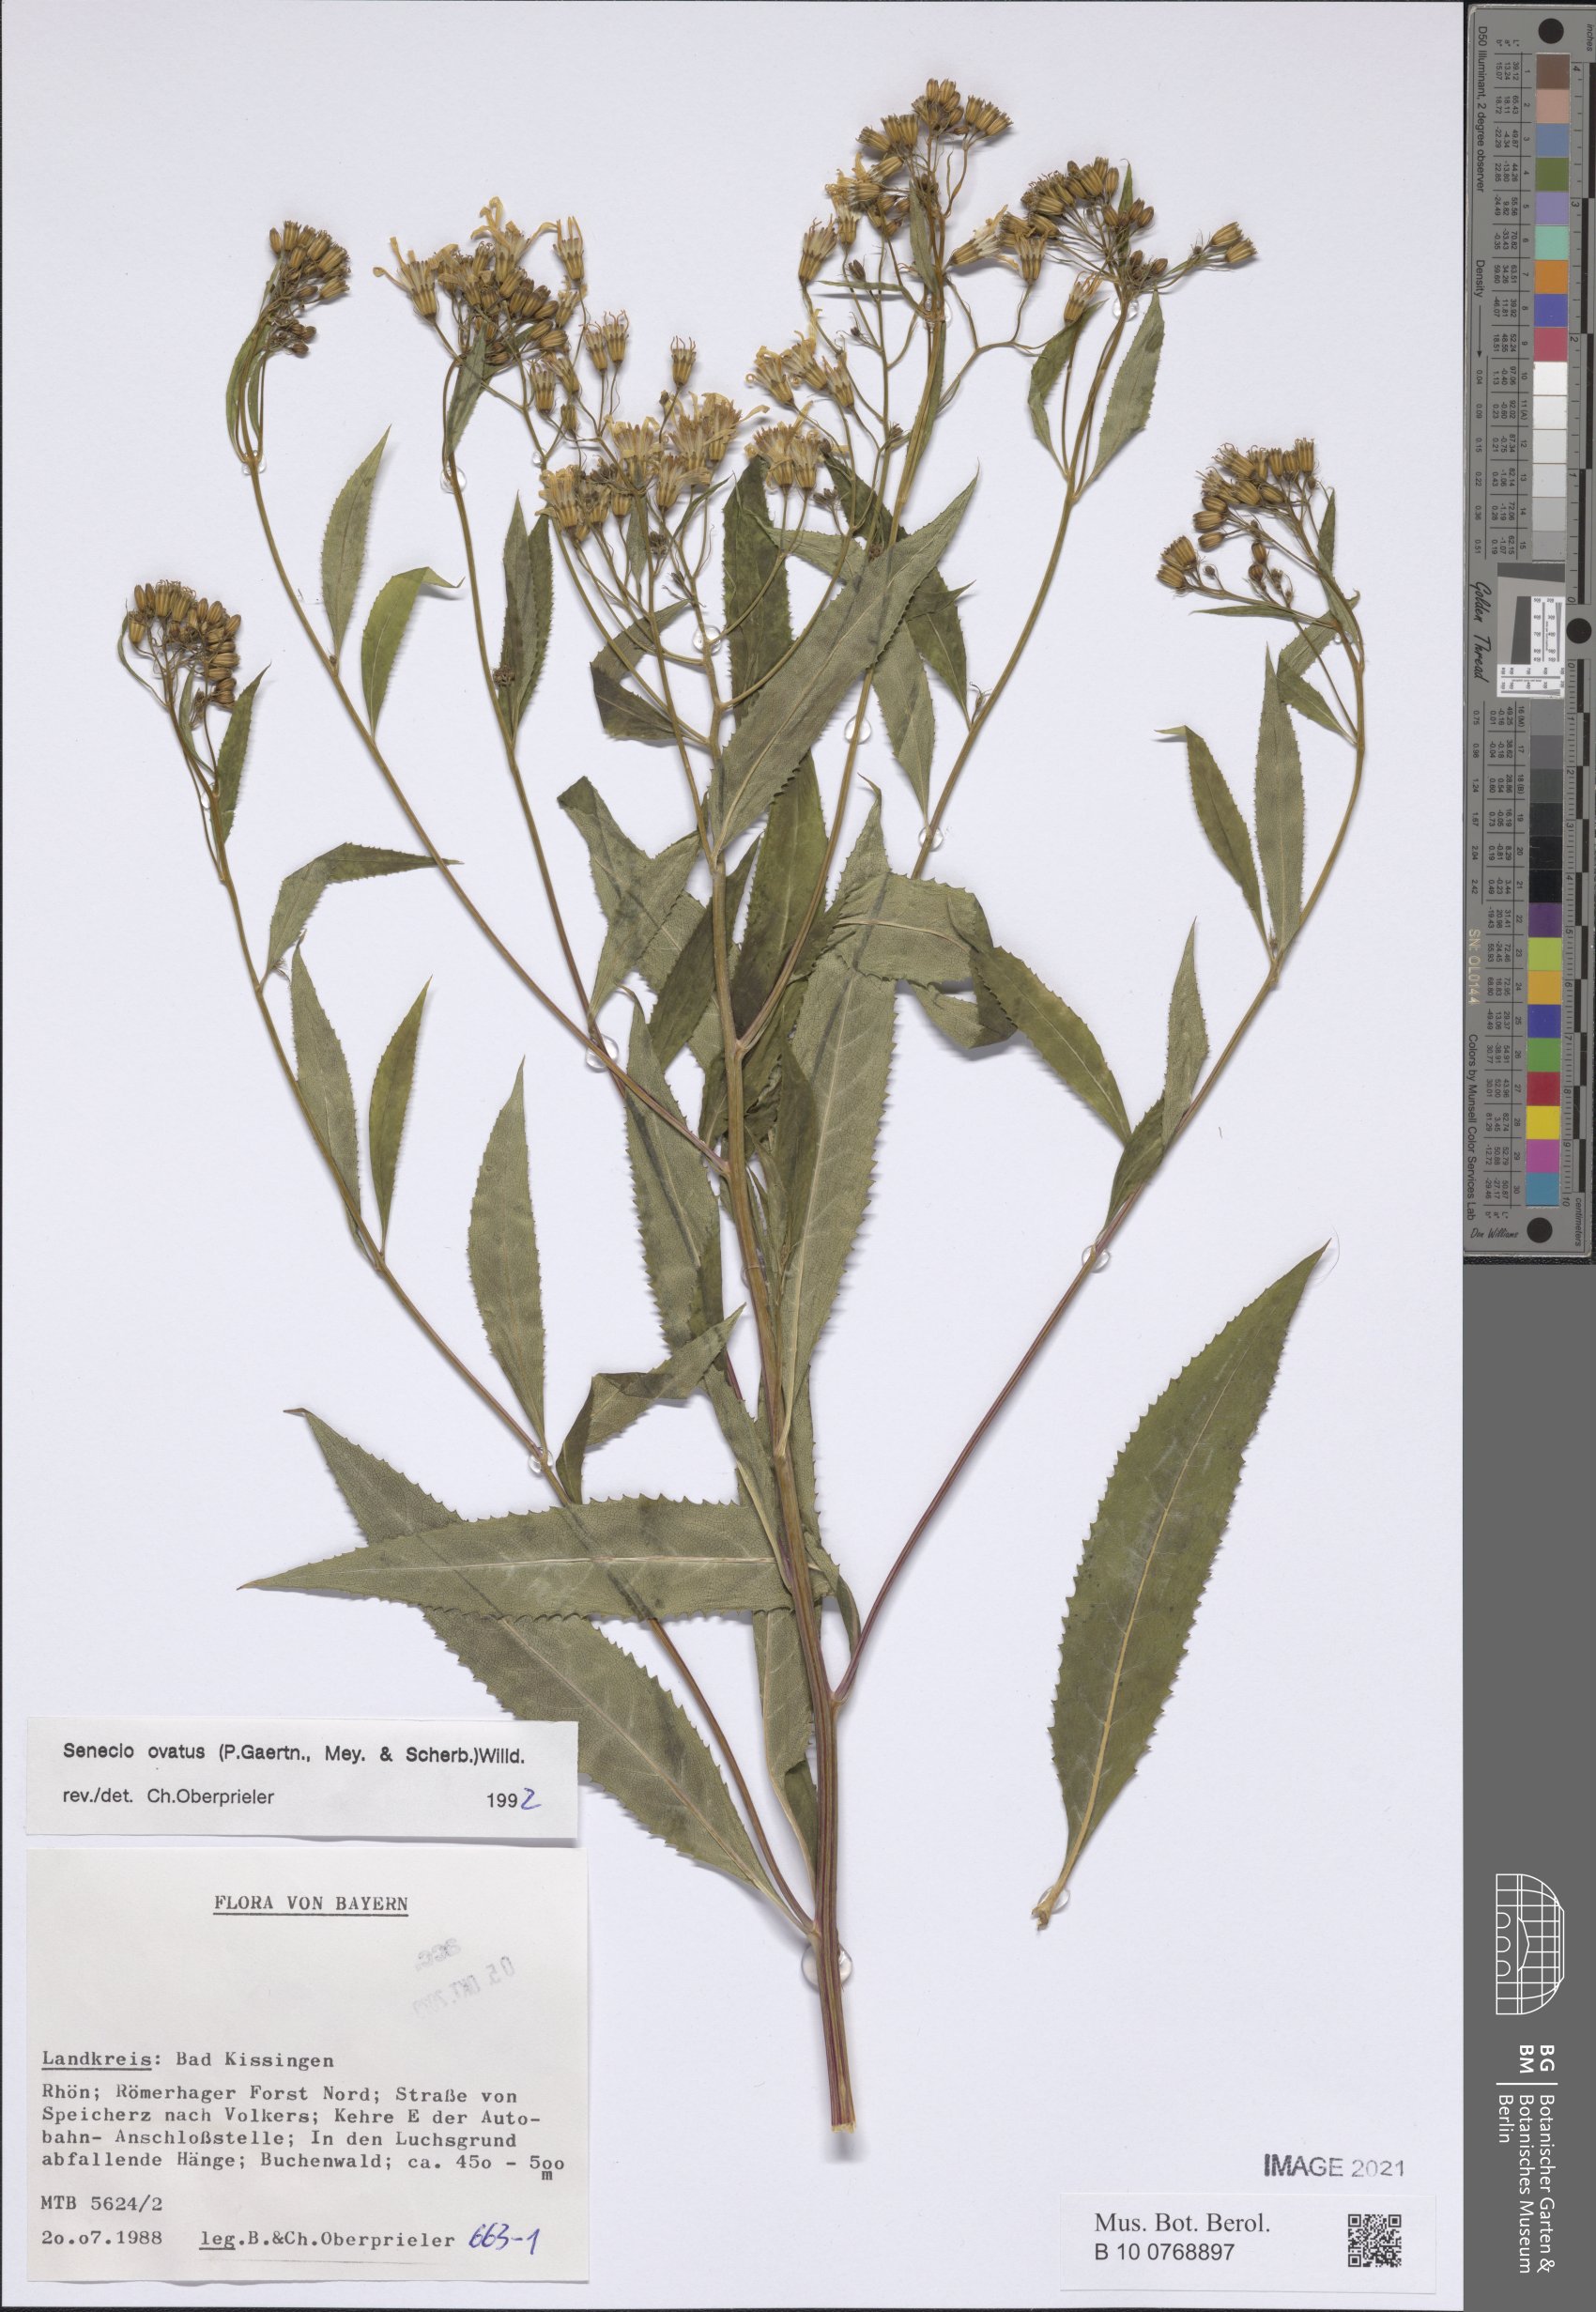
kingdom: Plantae
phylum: Tracheophyta
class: Magnoliopsida
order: Asterales
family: Asteraceae
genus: Senecio
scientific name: Senecio ovatus
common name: Wood ragwort
